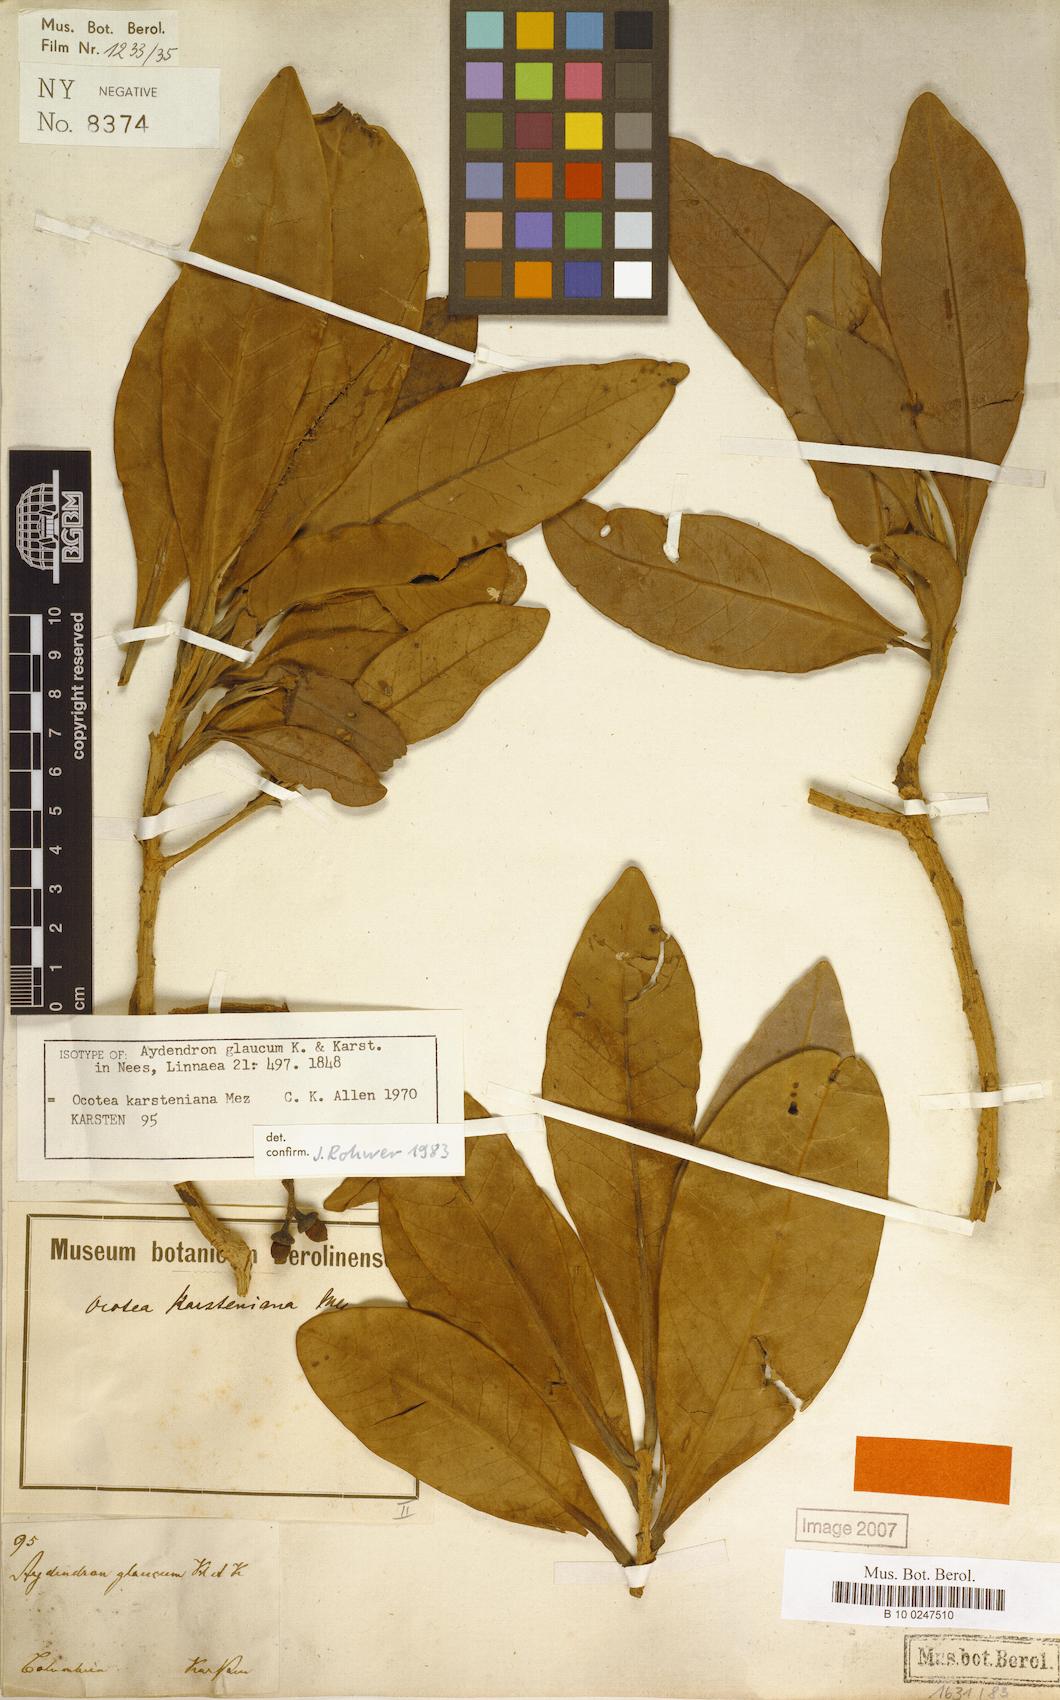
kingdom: Plantae
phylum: Tracheophyta
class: Magnoliopsida
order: Laurales
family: Lauraceae
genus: Ocotea
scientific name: Ocotea karsteniana
